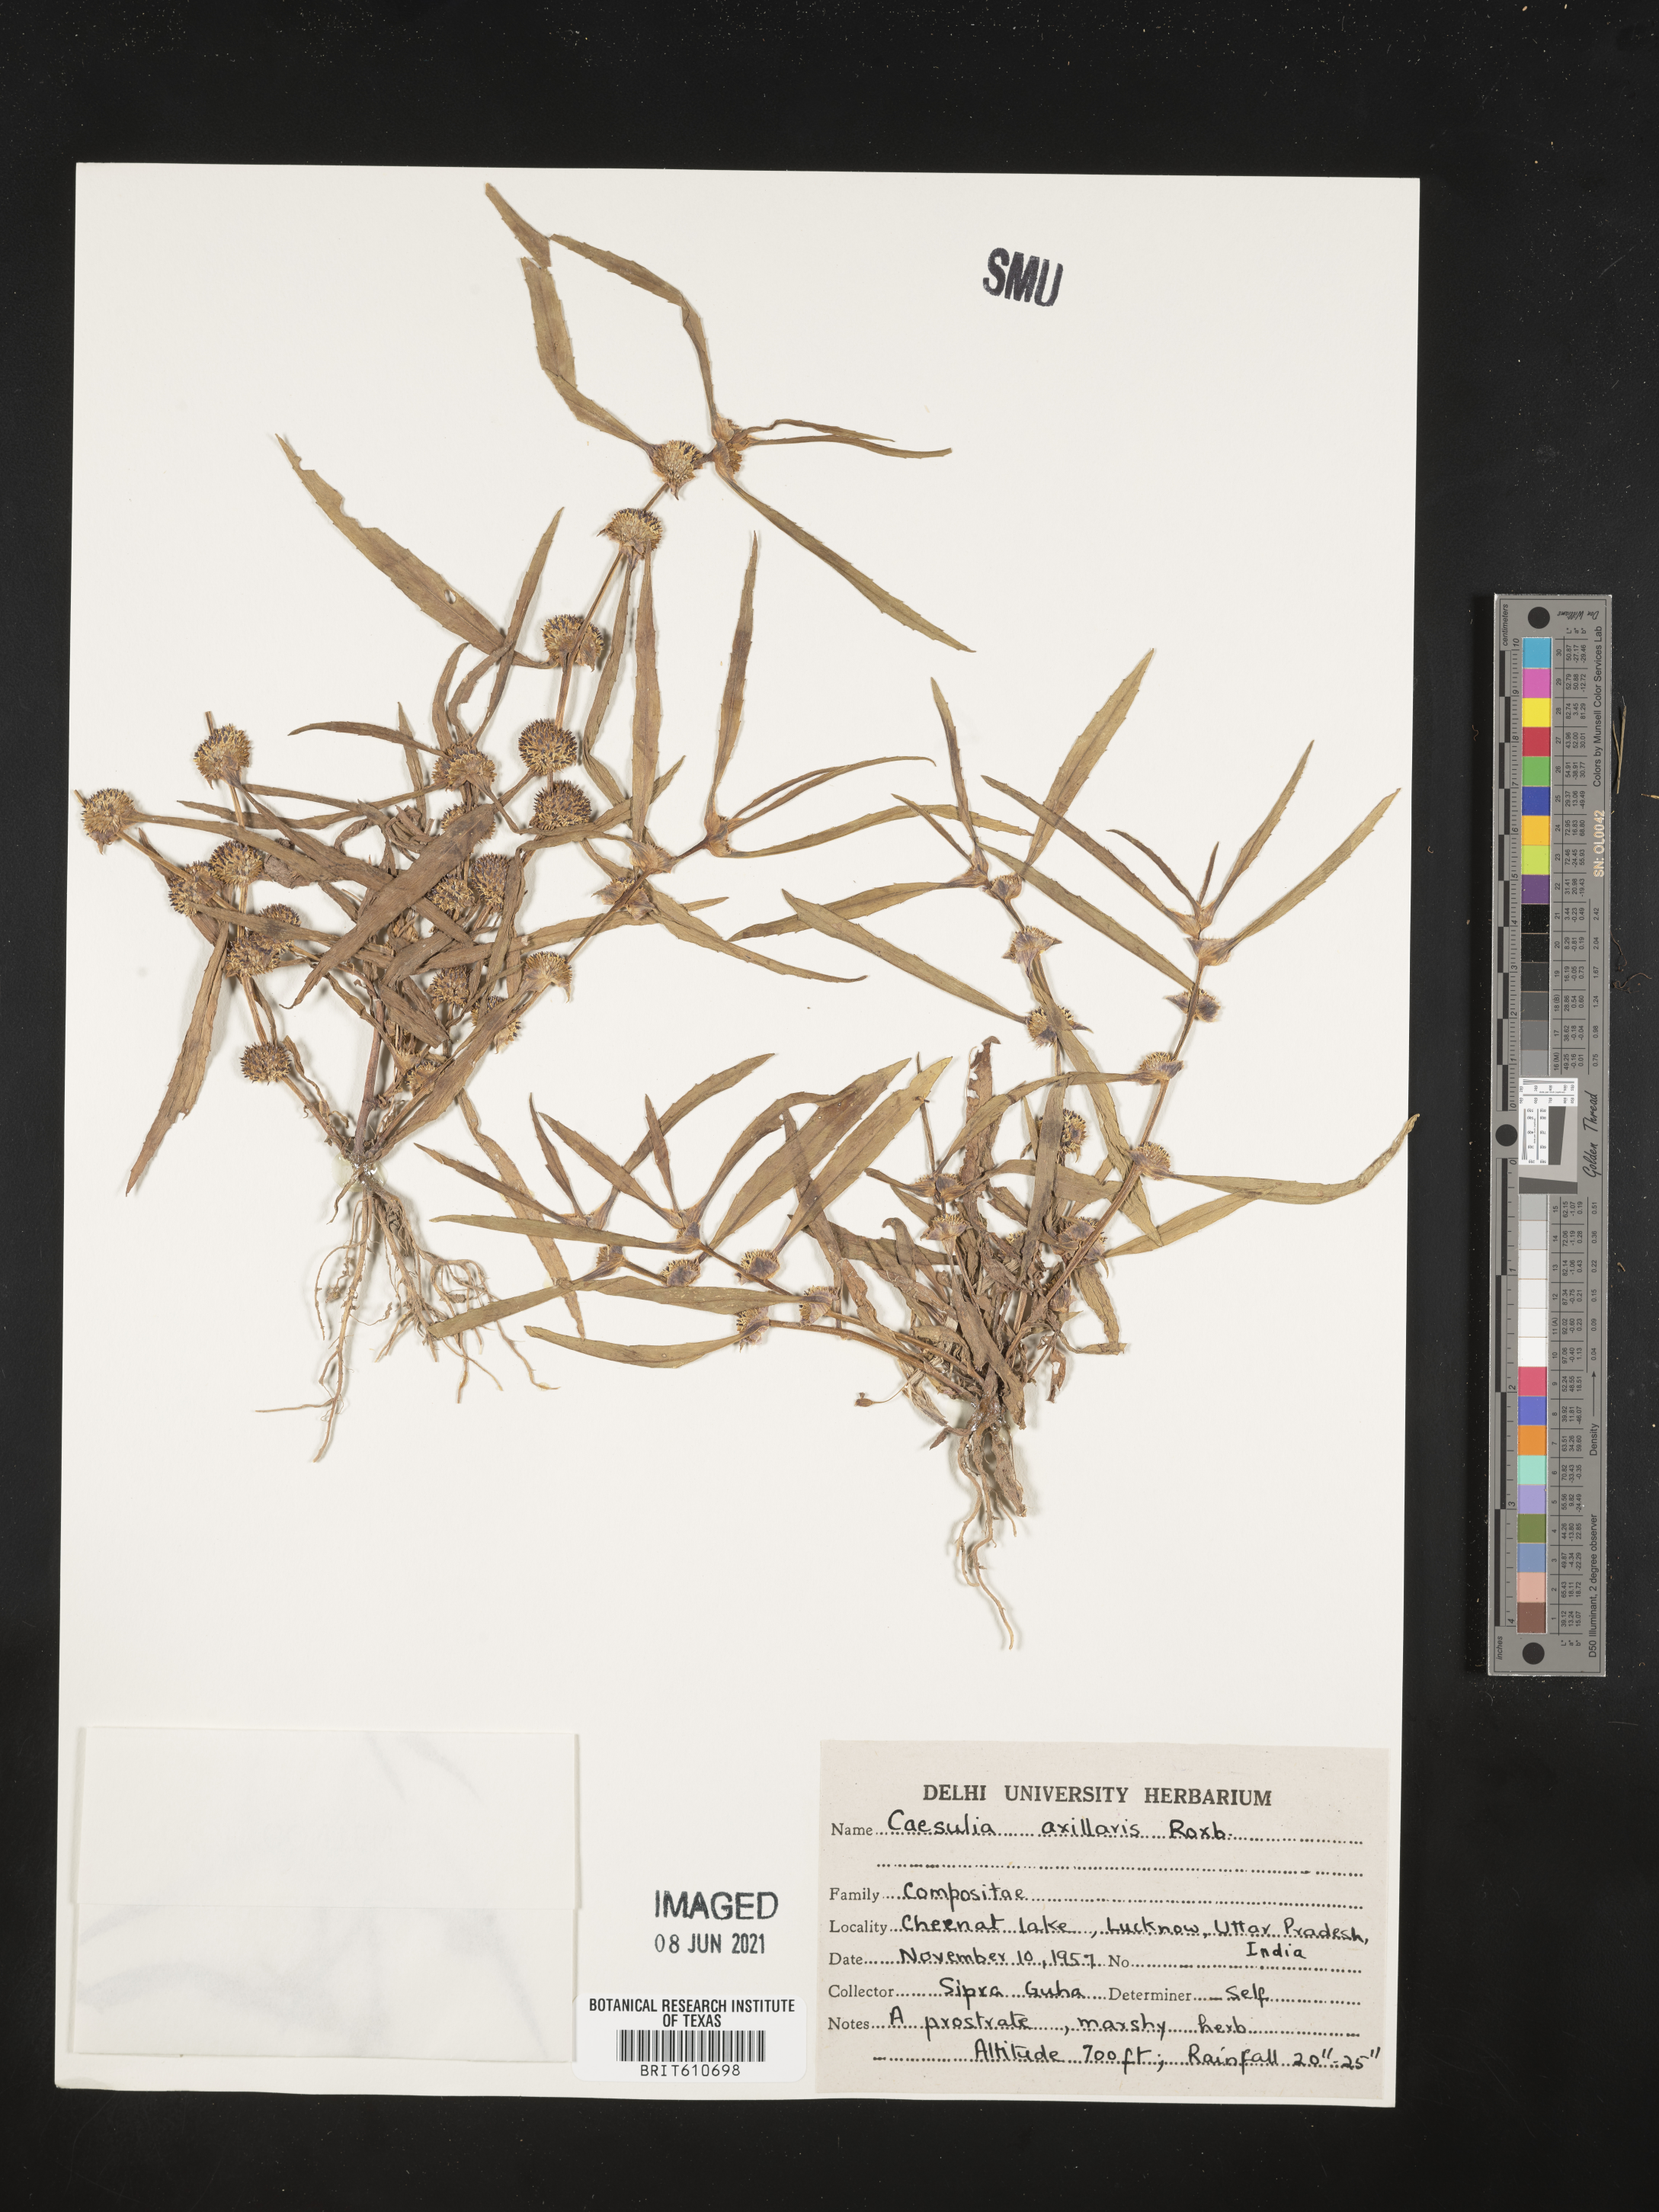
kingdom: Plantae
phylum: Tracheophyta
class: Magnoliopsida
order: Asterales
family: Asteraceae
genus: Caesulia
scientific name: Caesulia axillaris
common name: Pink node flower
